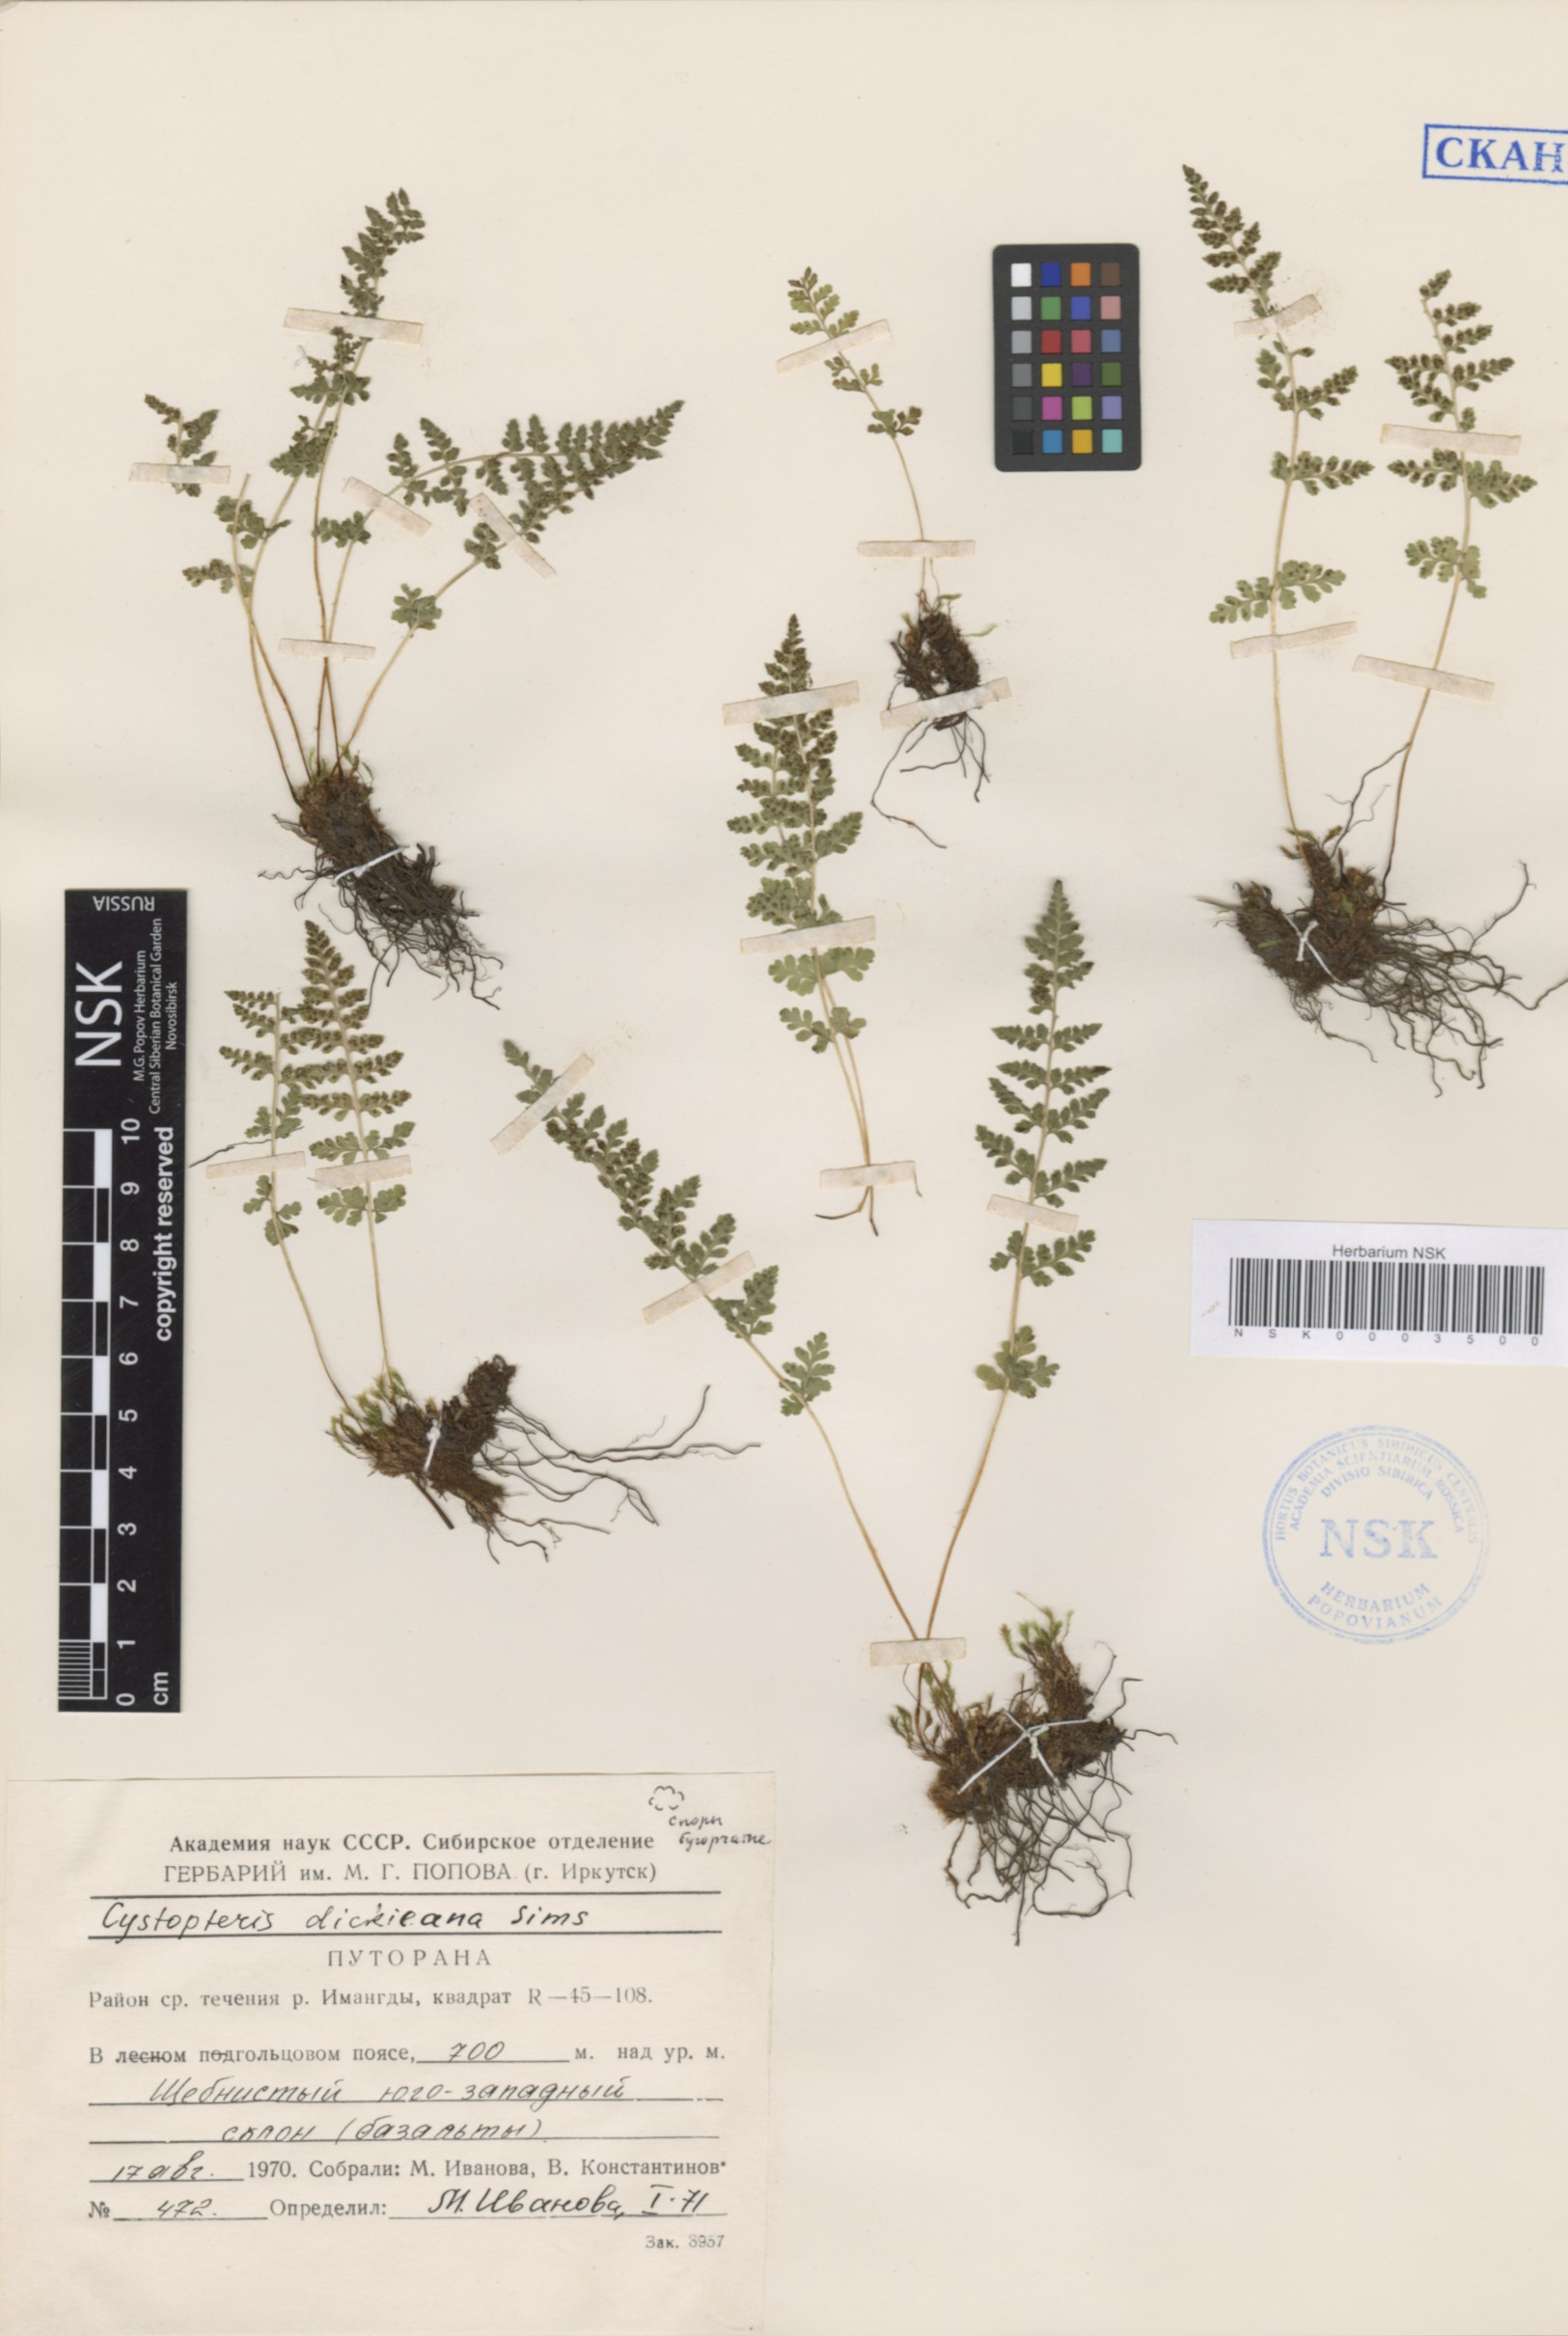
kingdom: Plantae
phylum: Tracheophyta
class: Polypodiopsida
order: Polypodiales
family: Cystopteridaceae
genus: Cystopteris
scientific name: Cystopteris dickieana
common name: Dickie's bladder-fern
